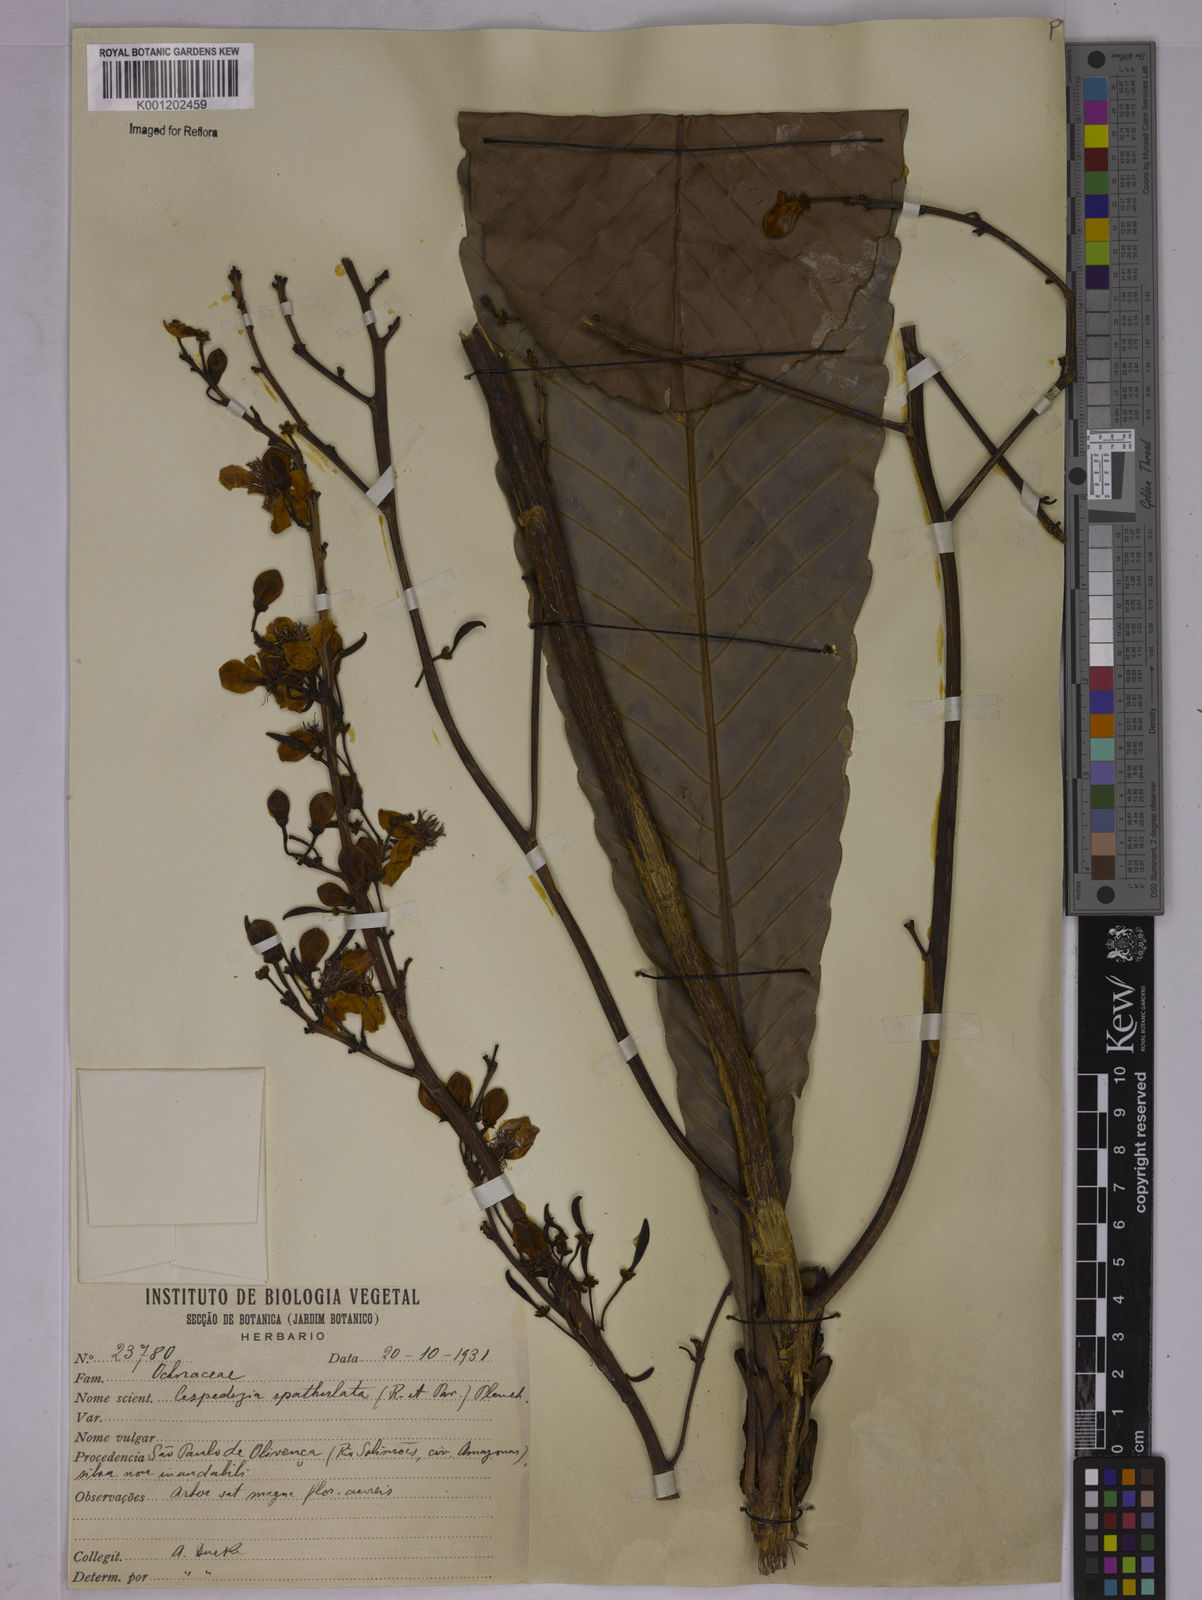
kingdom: Plantae
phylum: Tracheophyta
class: Magnoliopsida
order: Malpighiales
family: Ochnaceae
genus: Cespedesia
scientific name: Cespedesia spathulata
